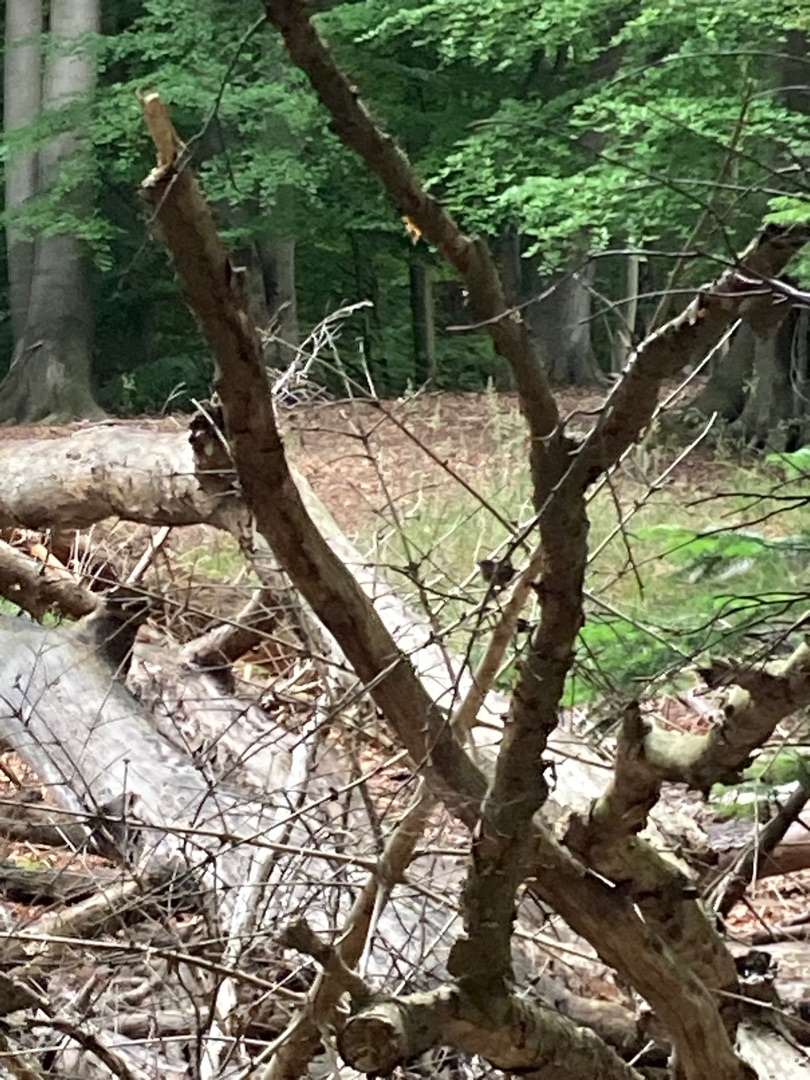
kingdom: Animalia
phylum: Chordata
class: Aves
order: Passeriformes
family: Troglodytidae
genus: Troglodytes
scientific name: Troglodytes troglodytes
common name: Gærdesmutte
